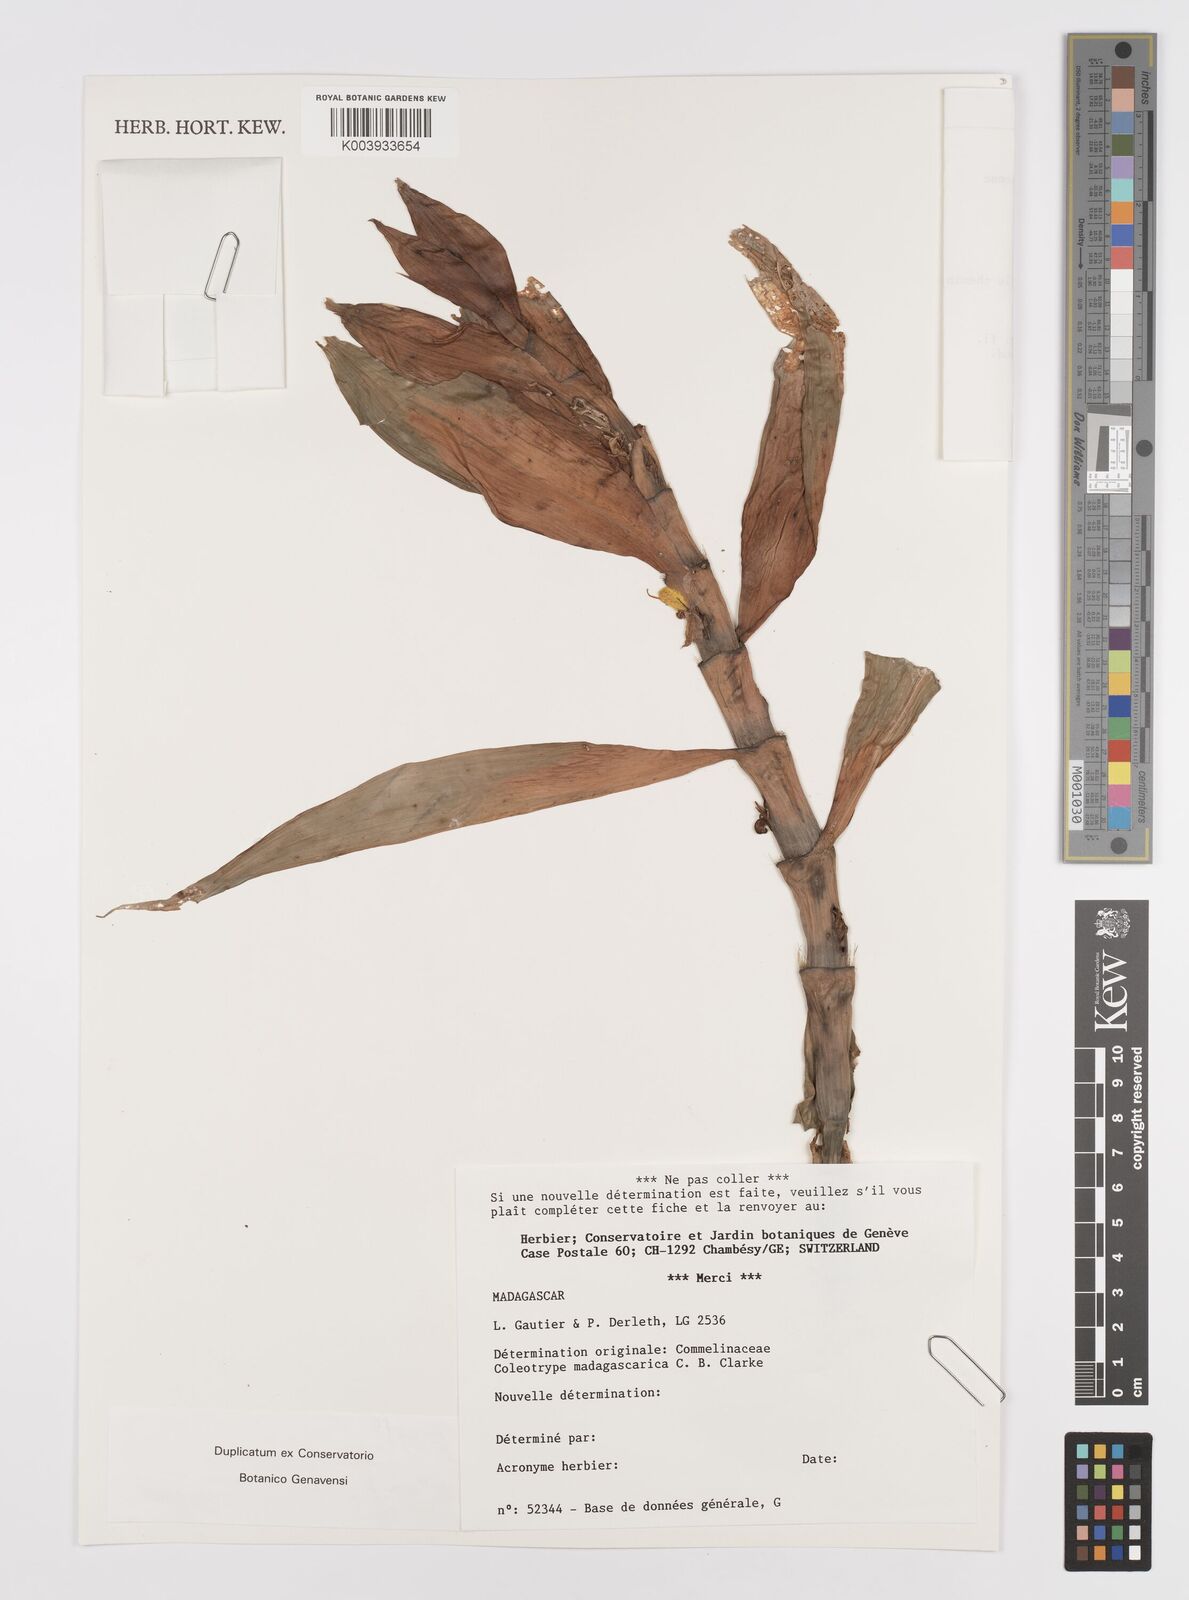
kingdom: Plantae
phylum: Tracheophyta
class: Liliopsida
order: Commelinales
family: Commelinaceae
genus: Coleotrype
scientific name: Coleotrype madagascarica
